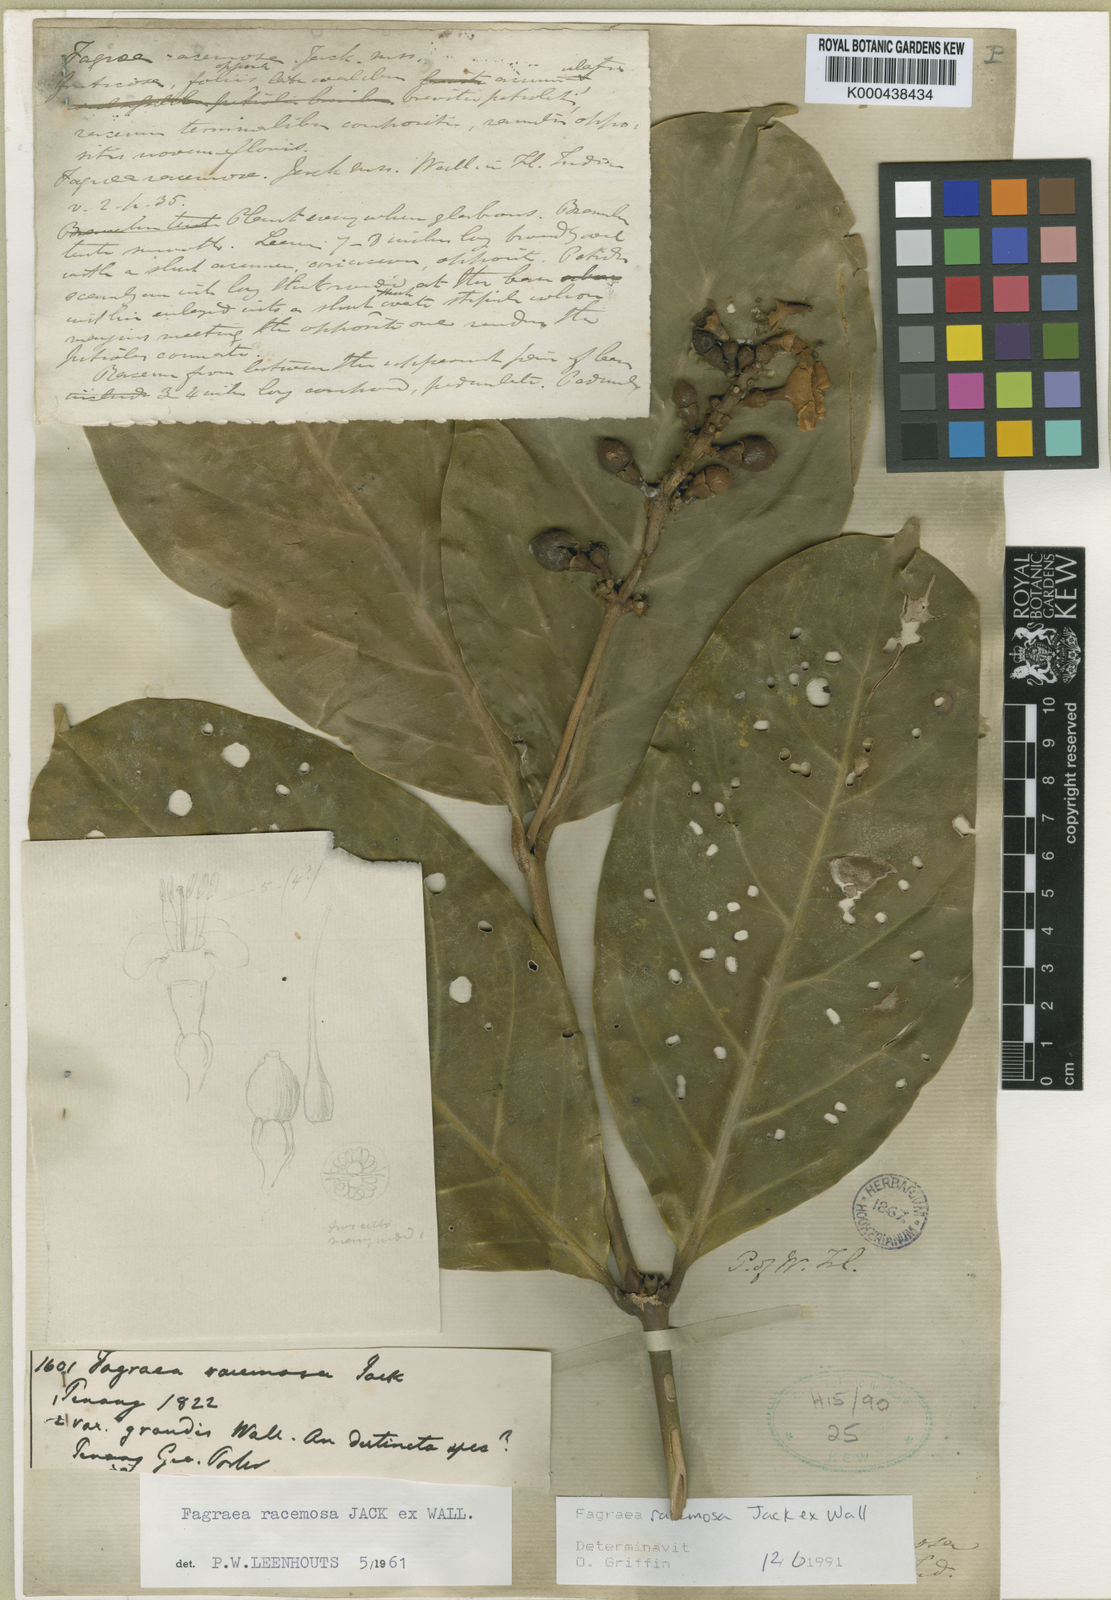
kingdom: Plantae
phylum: Tracheophyta
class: Magnoliopsida
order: Gentianales
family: Gentianaceae
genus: Utania
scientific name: Utania racemosa
